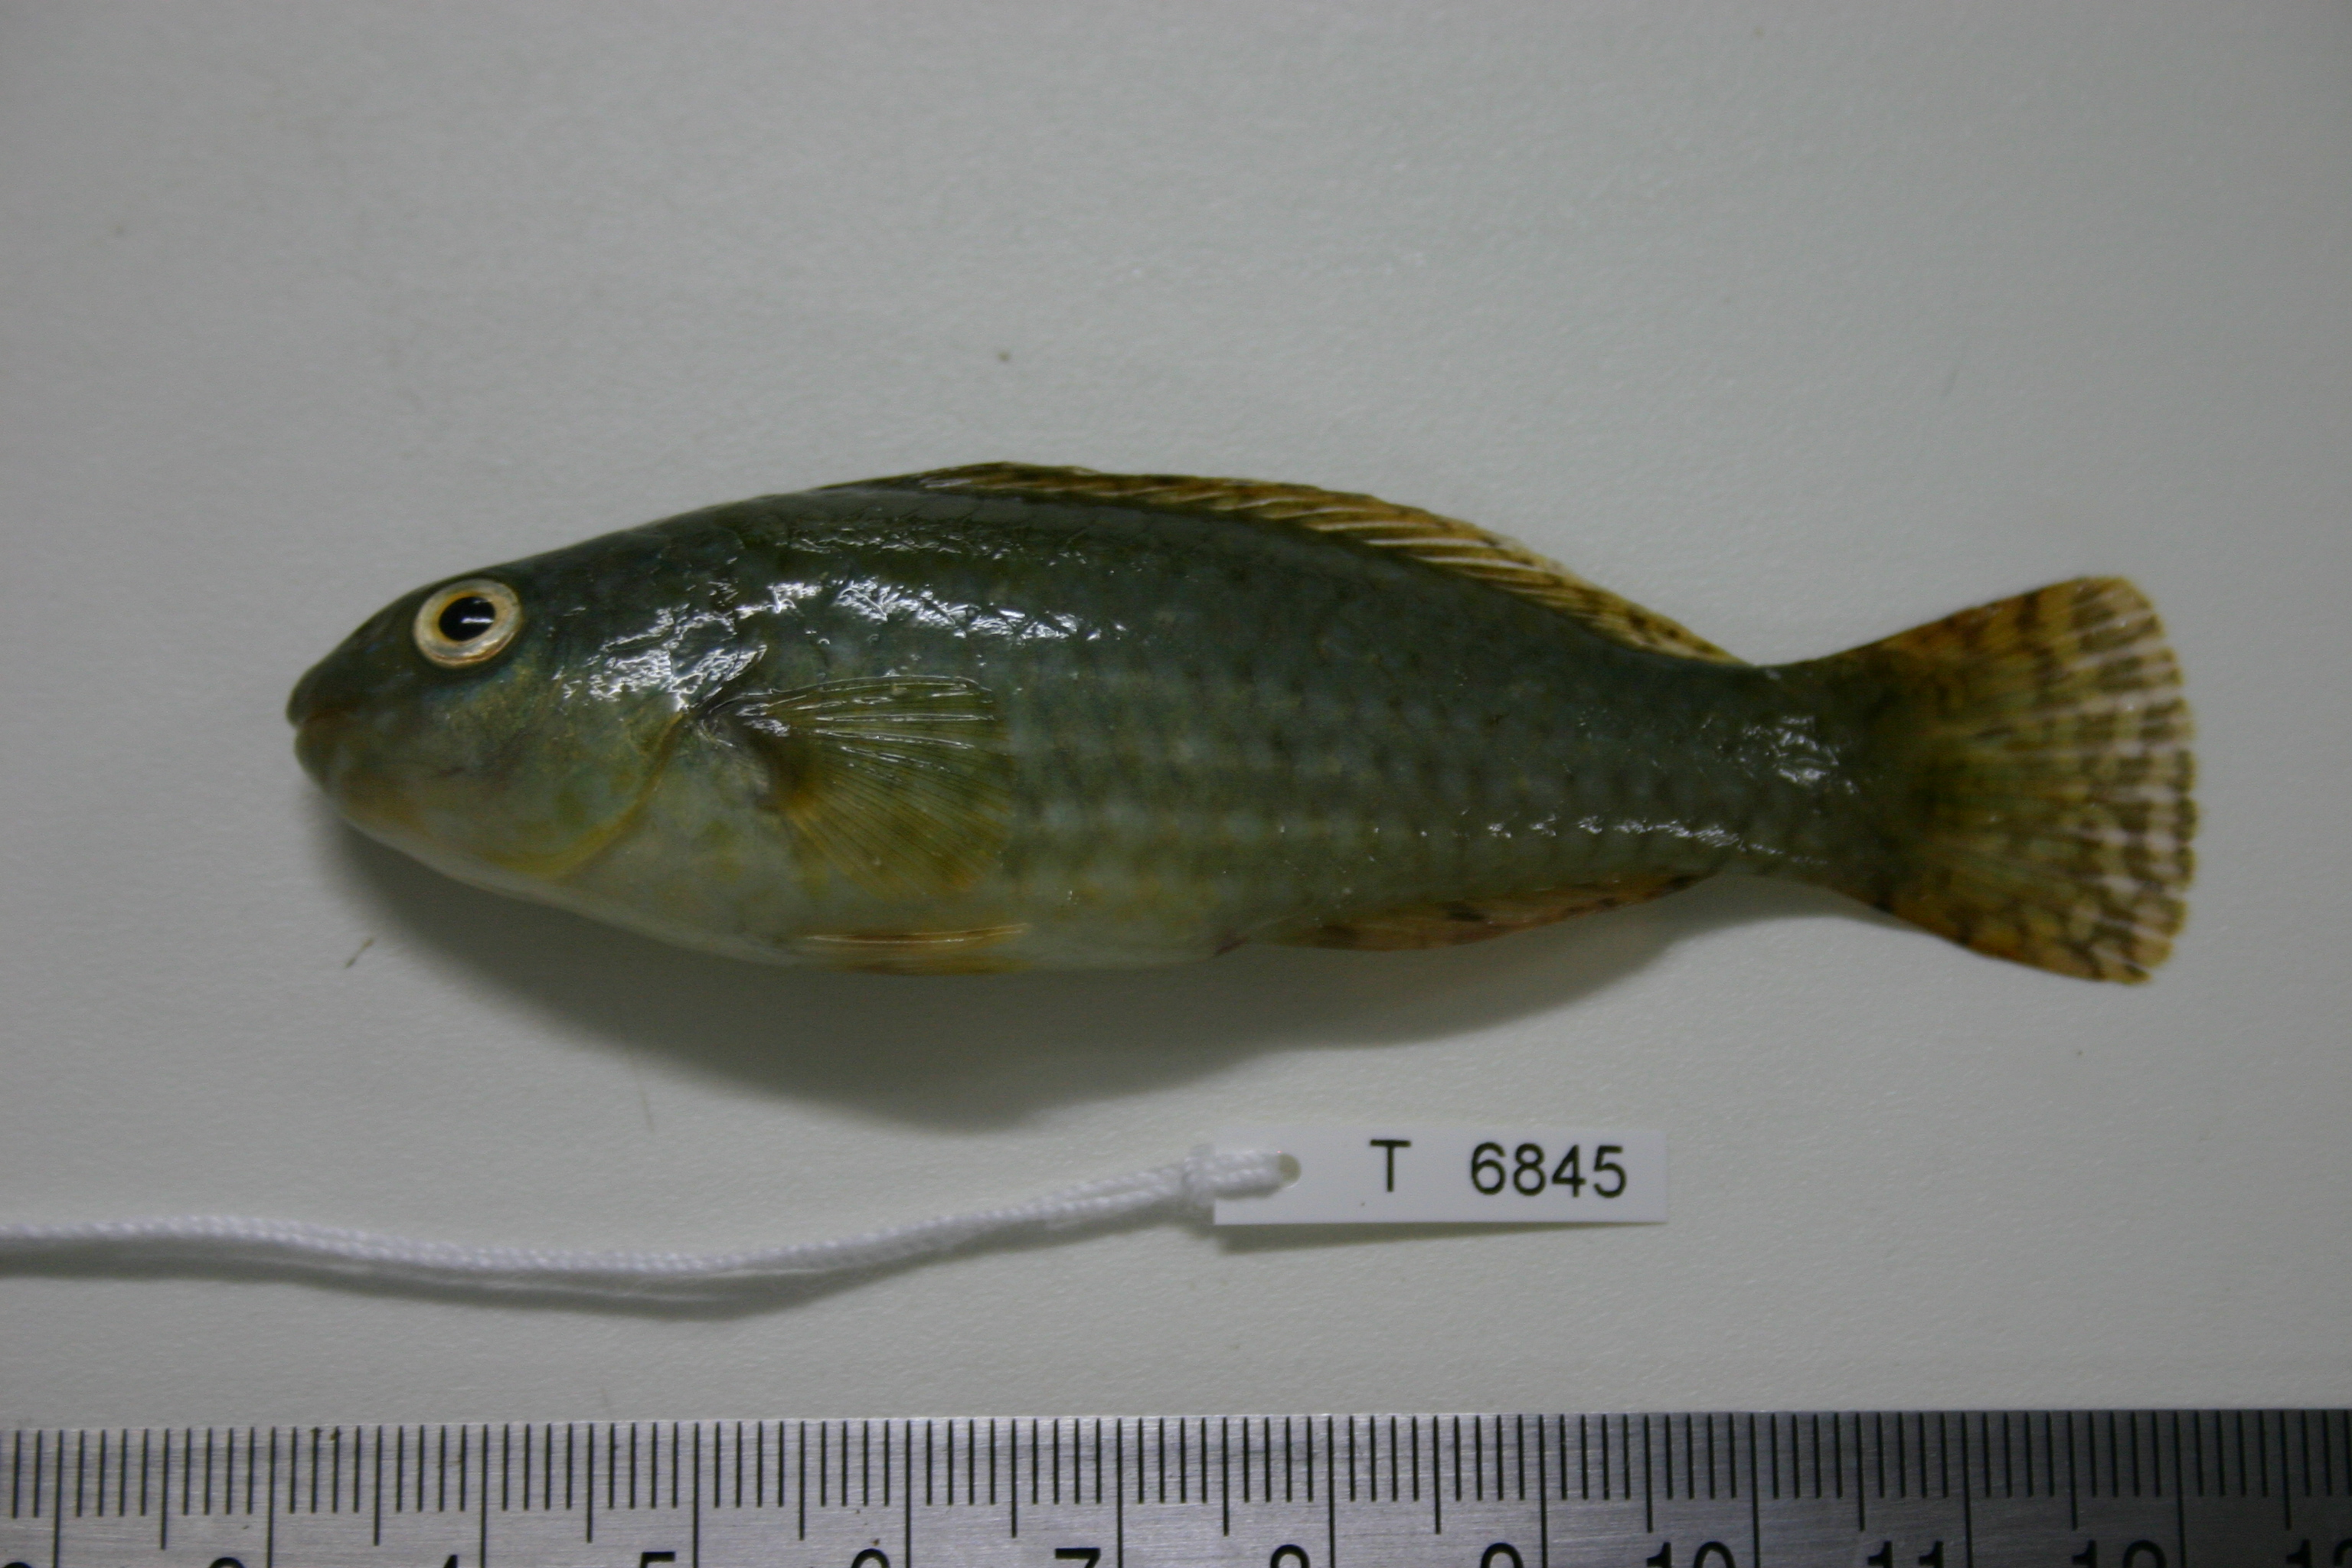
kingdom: Animalia
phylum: Chordata
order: Perciformes
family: Scaridae
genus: Leptoscarus
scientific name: Leptoscarus vaigiensis
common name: Marbled parrotfish
